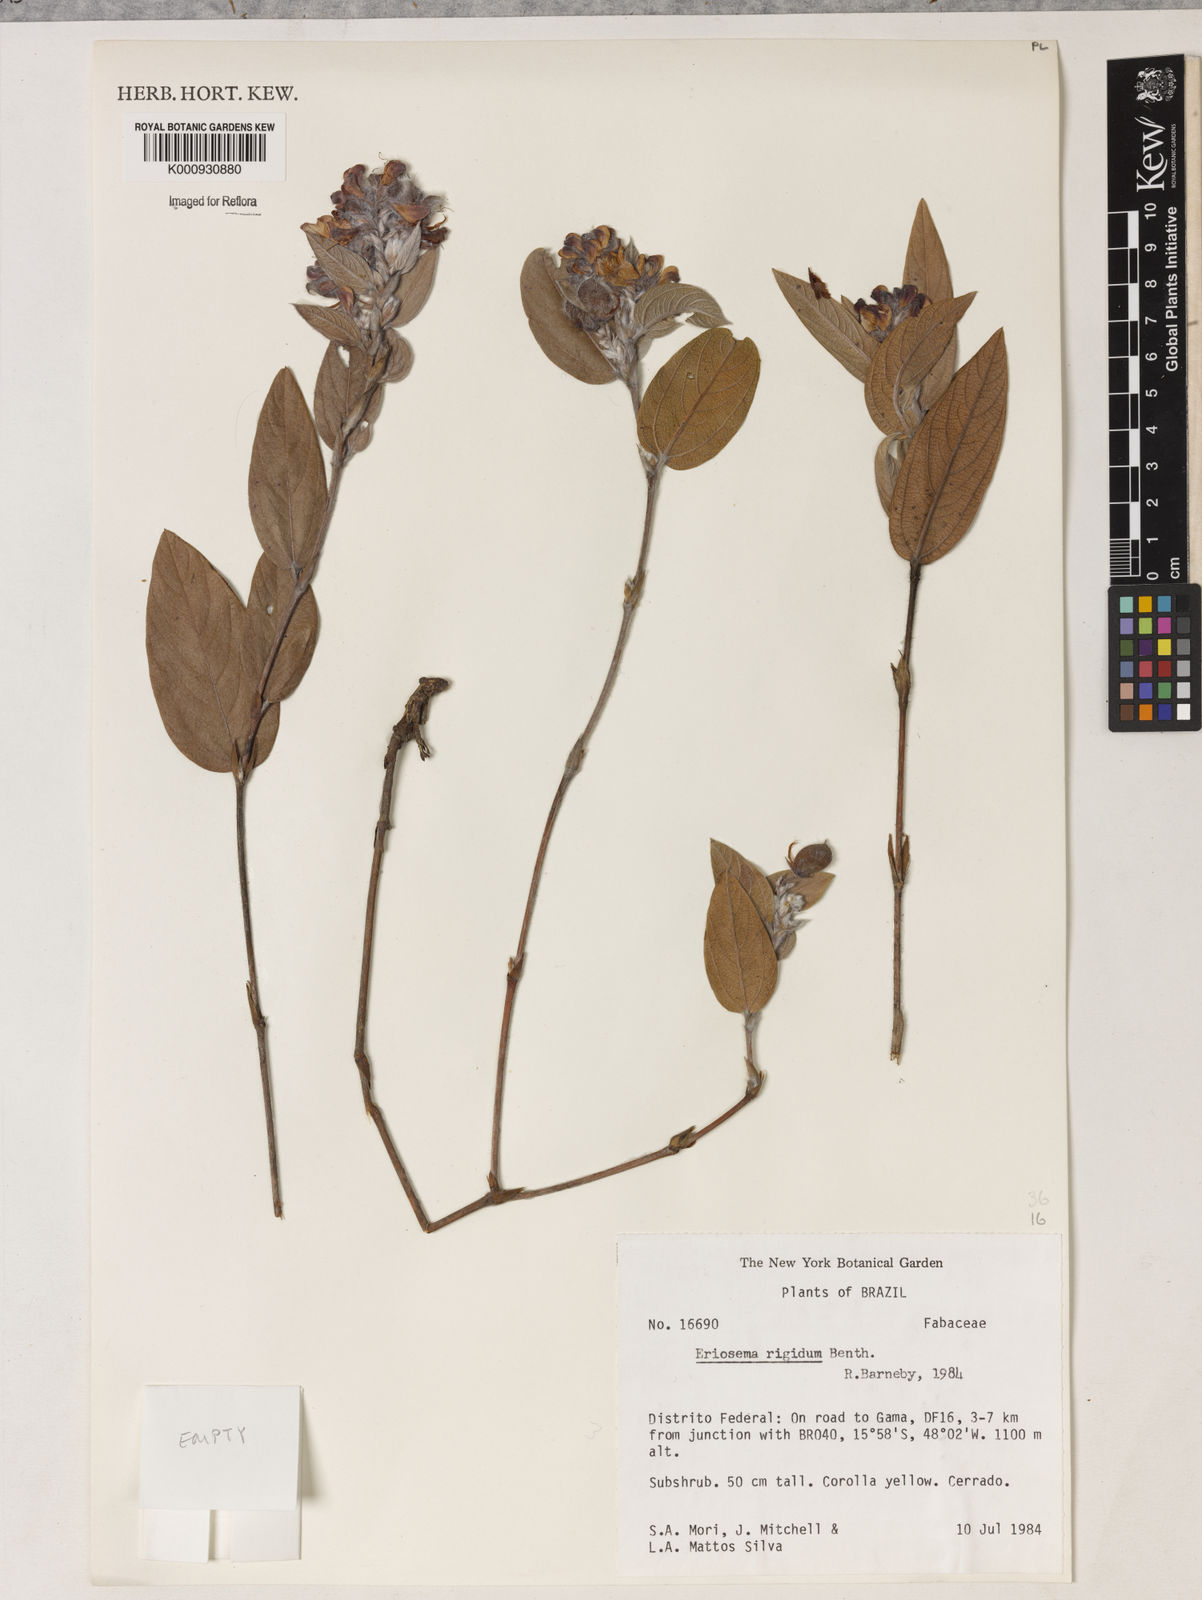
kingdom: Plantae
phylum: Tracheophyta
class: Magnoliopsida
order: Fabales
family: Fabaceae
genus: Eriosema
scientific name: Eriosema rigidum
